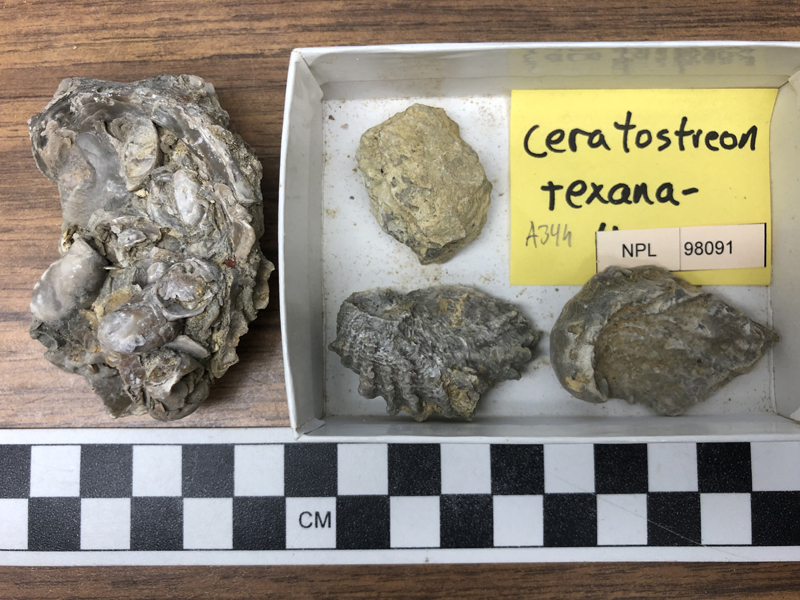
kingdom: Animalia
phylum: Mollusca
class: Bivalvia
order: Ostreida
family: Gryphaeidae
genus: Ceratostreon
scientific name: Ceratostreon
